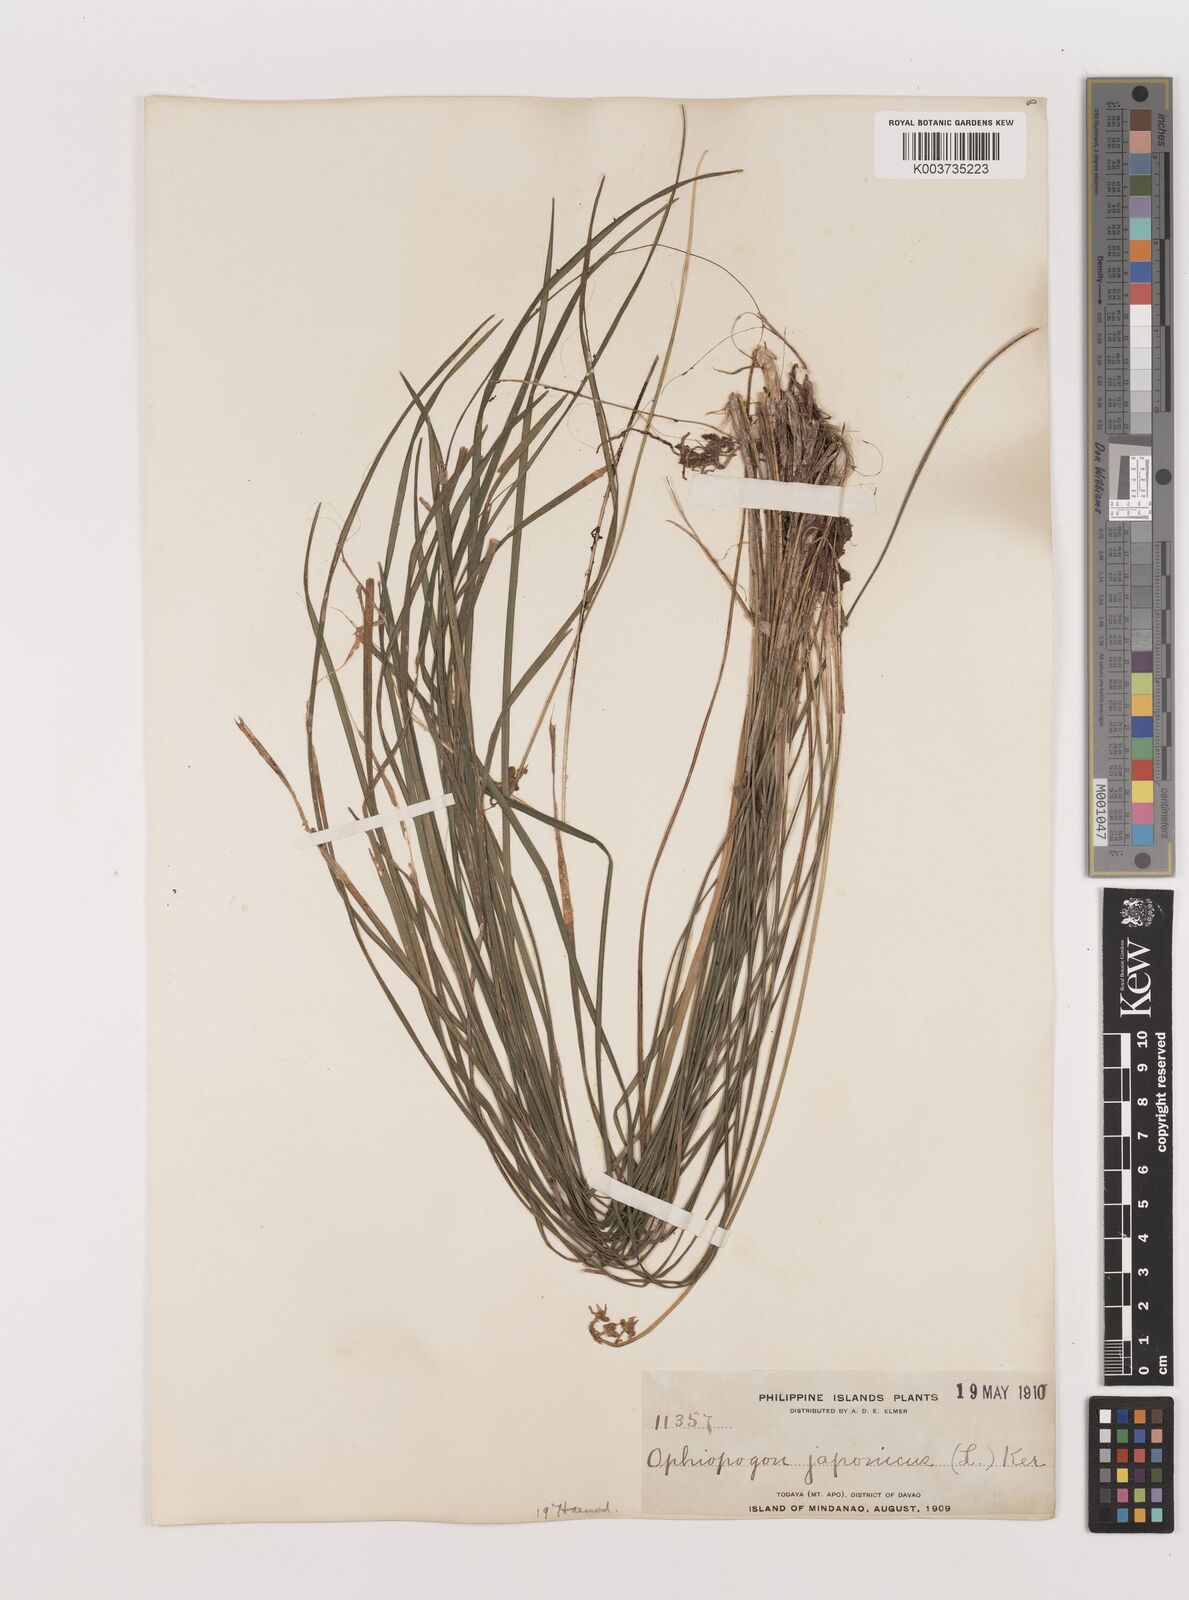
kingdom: Plantae
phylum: Tracheophyta
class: Liliopsida
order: Asparagales
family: Asparagaceae
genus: Ophiopogon
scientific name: Ophiopogon japonicus
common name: Dwarf lilyturf
